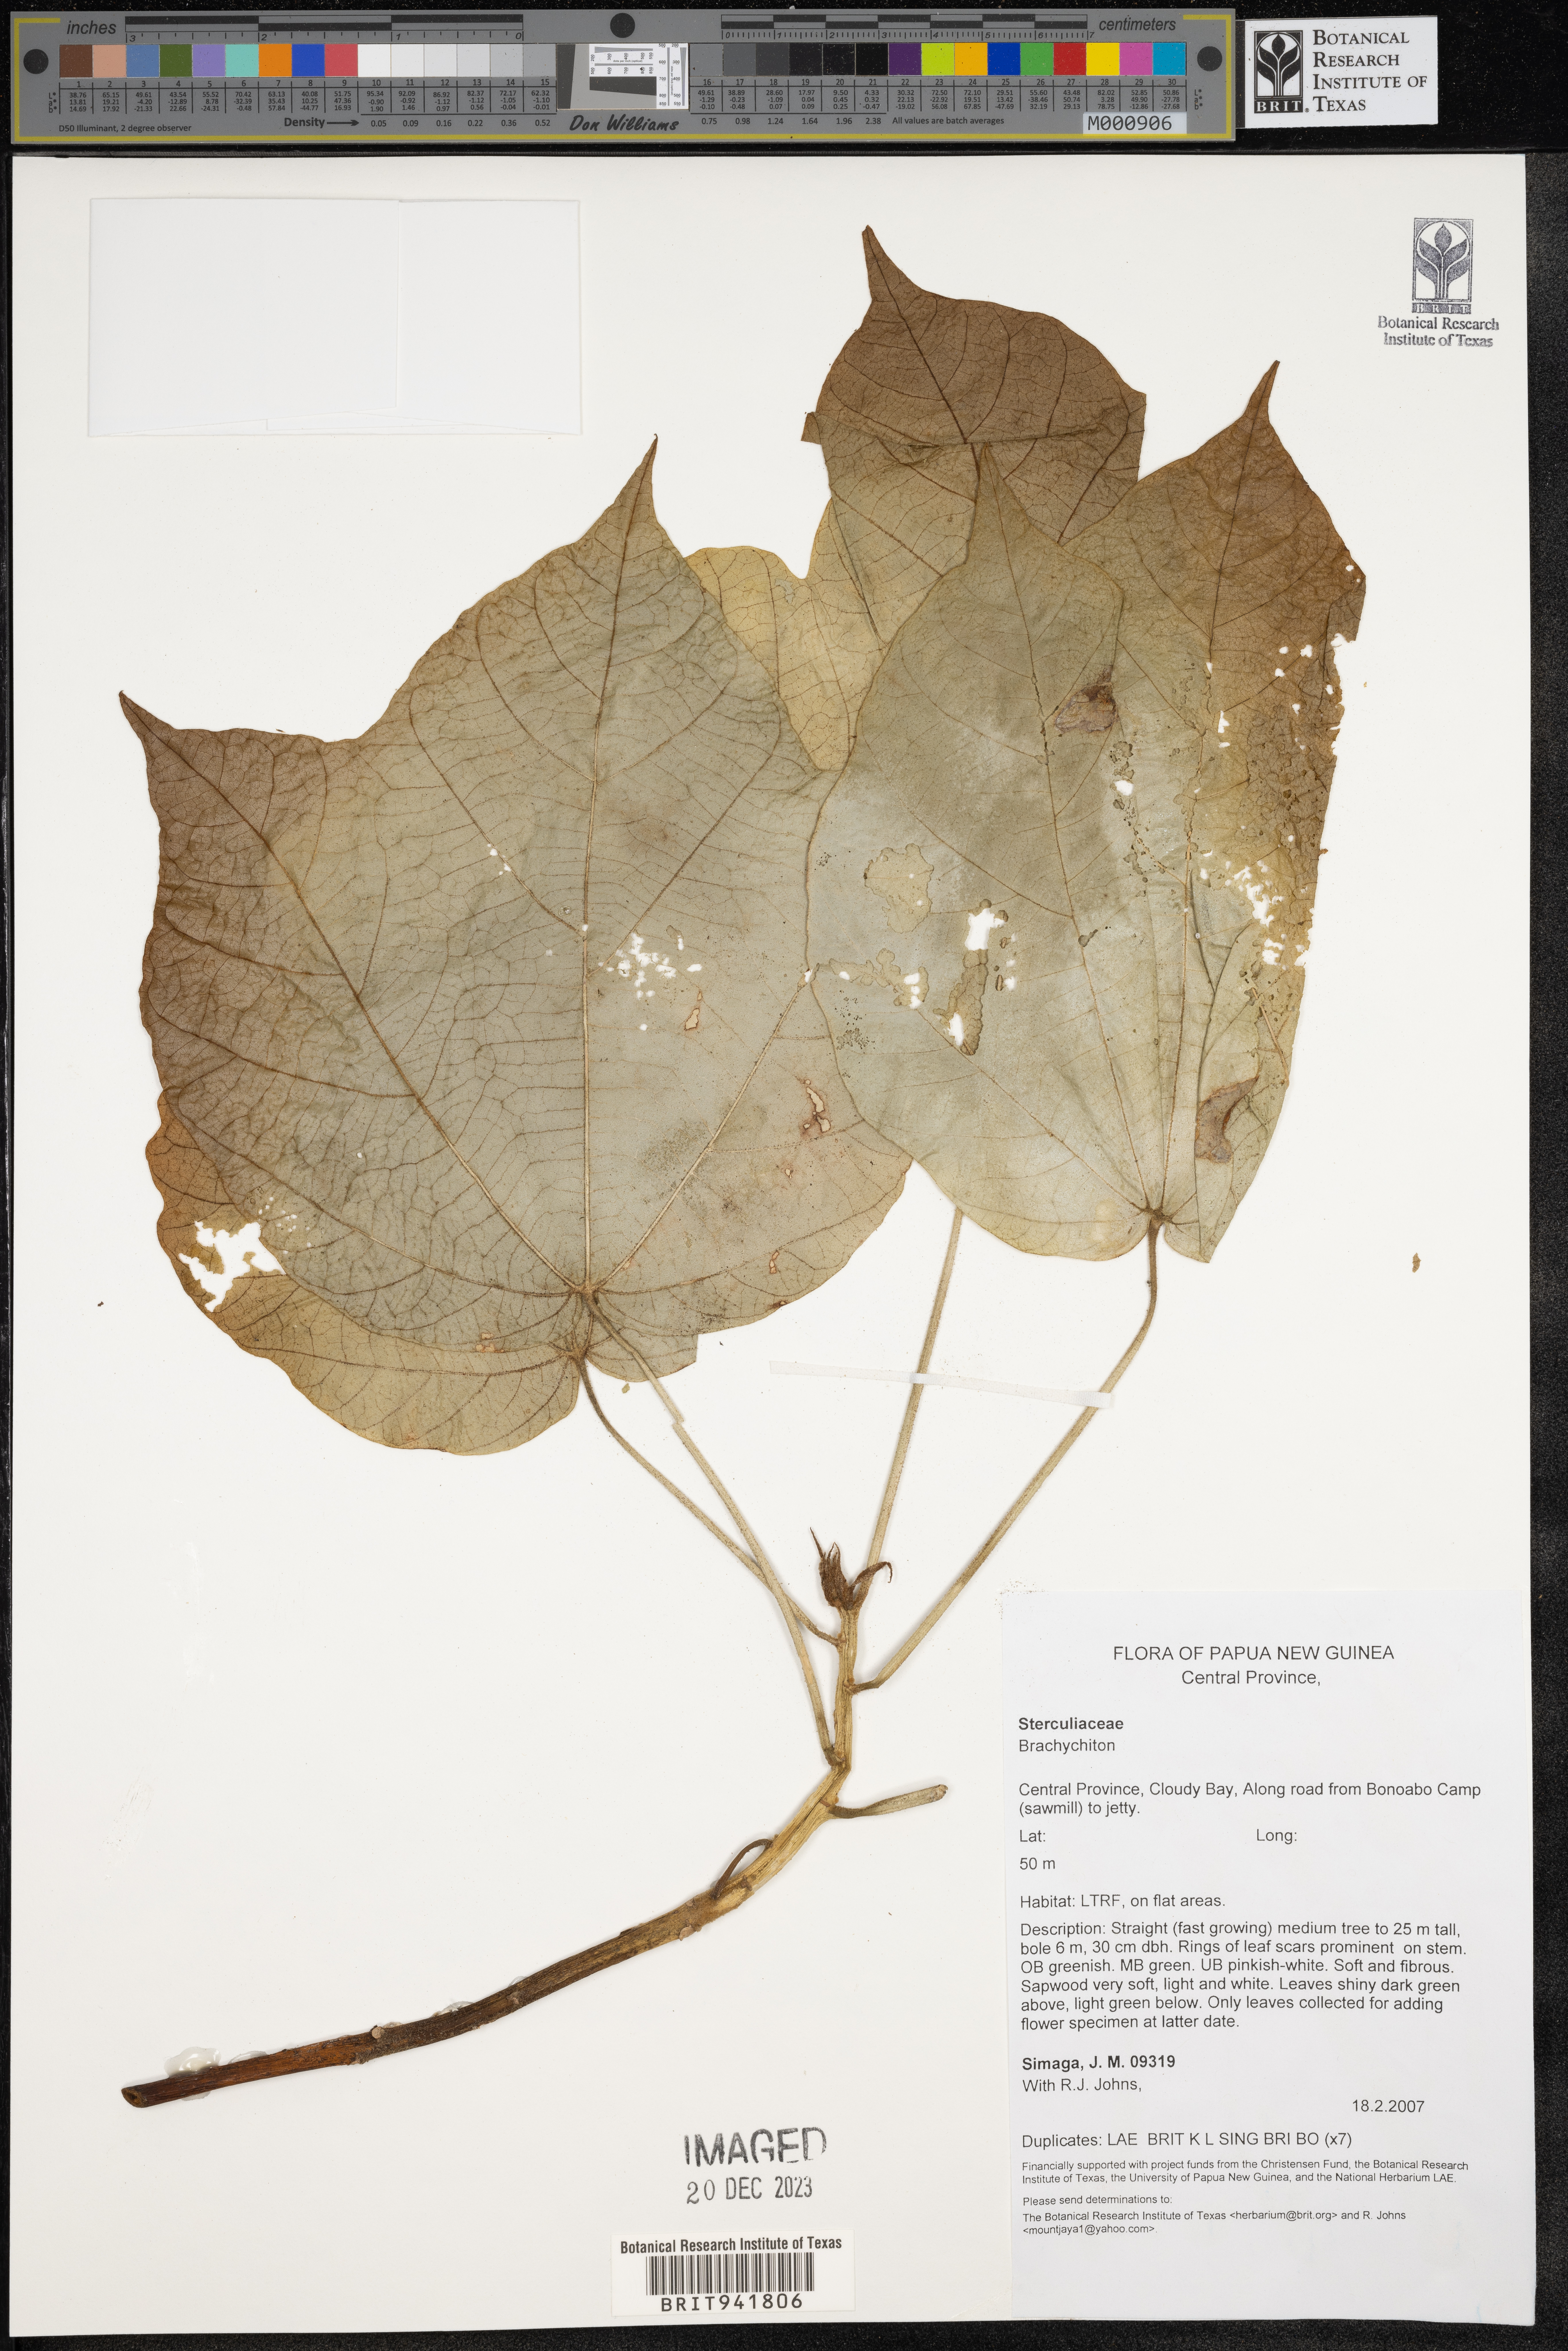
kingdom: Plantae
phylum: Tracheophyta
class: Magnoliopsida
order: Malvales
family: Malvaceae
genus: Brachychiton
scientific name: Brachychiton
